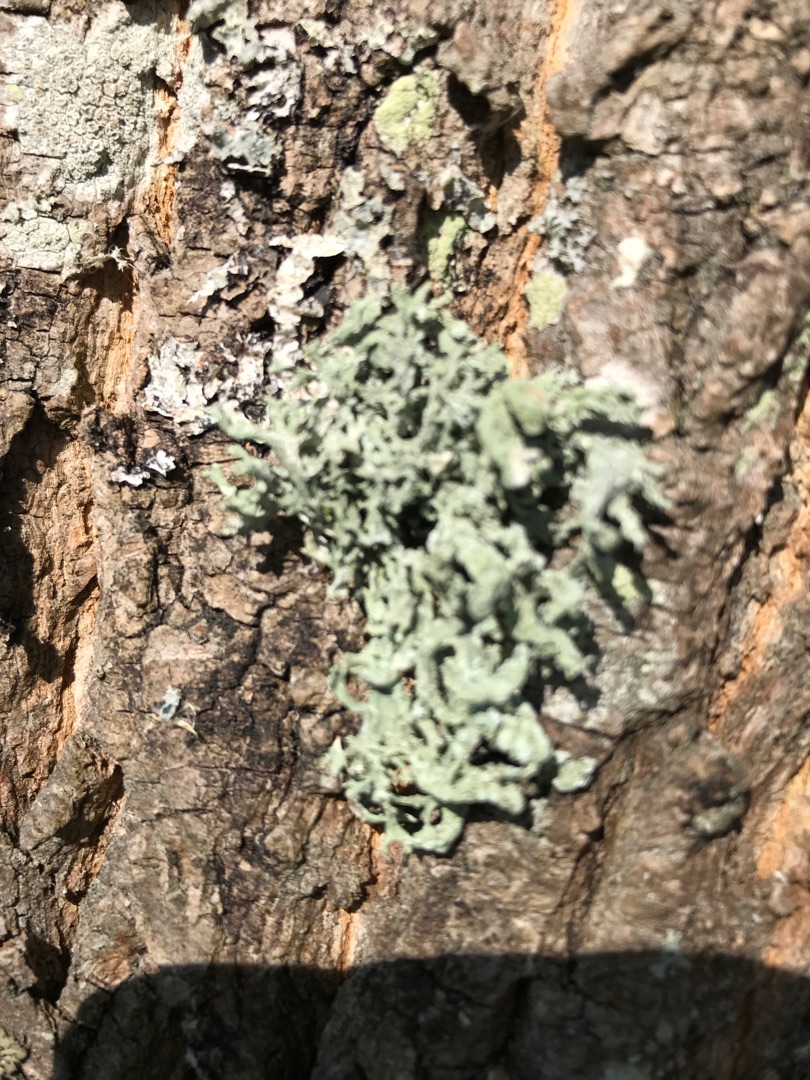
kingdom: Fungi
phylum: Ascomycota
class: Lecanoromycetes
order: Lecanorales
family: Parmeliaceae
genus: Evernia
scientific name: Evernia prunastri
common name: Almindelig slåenlav
